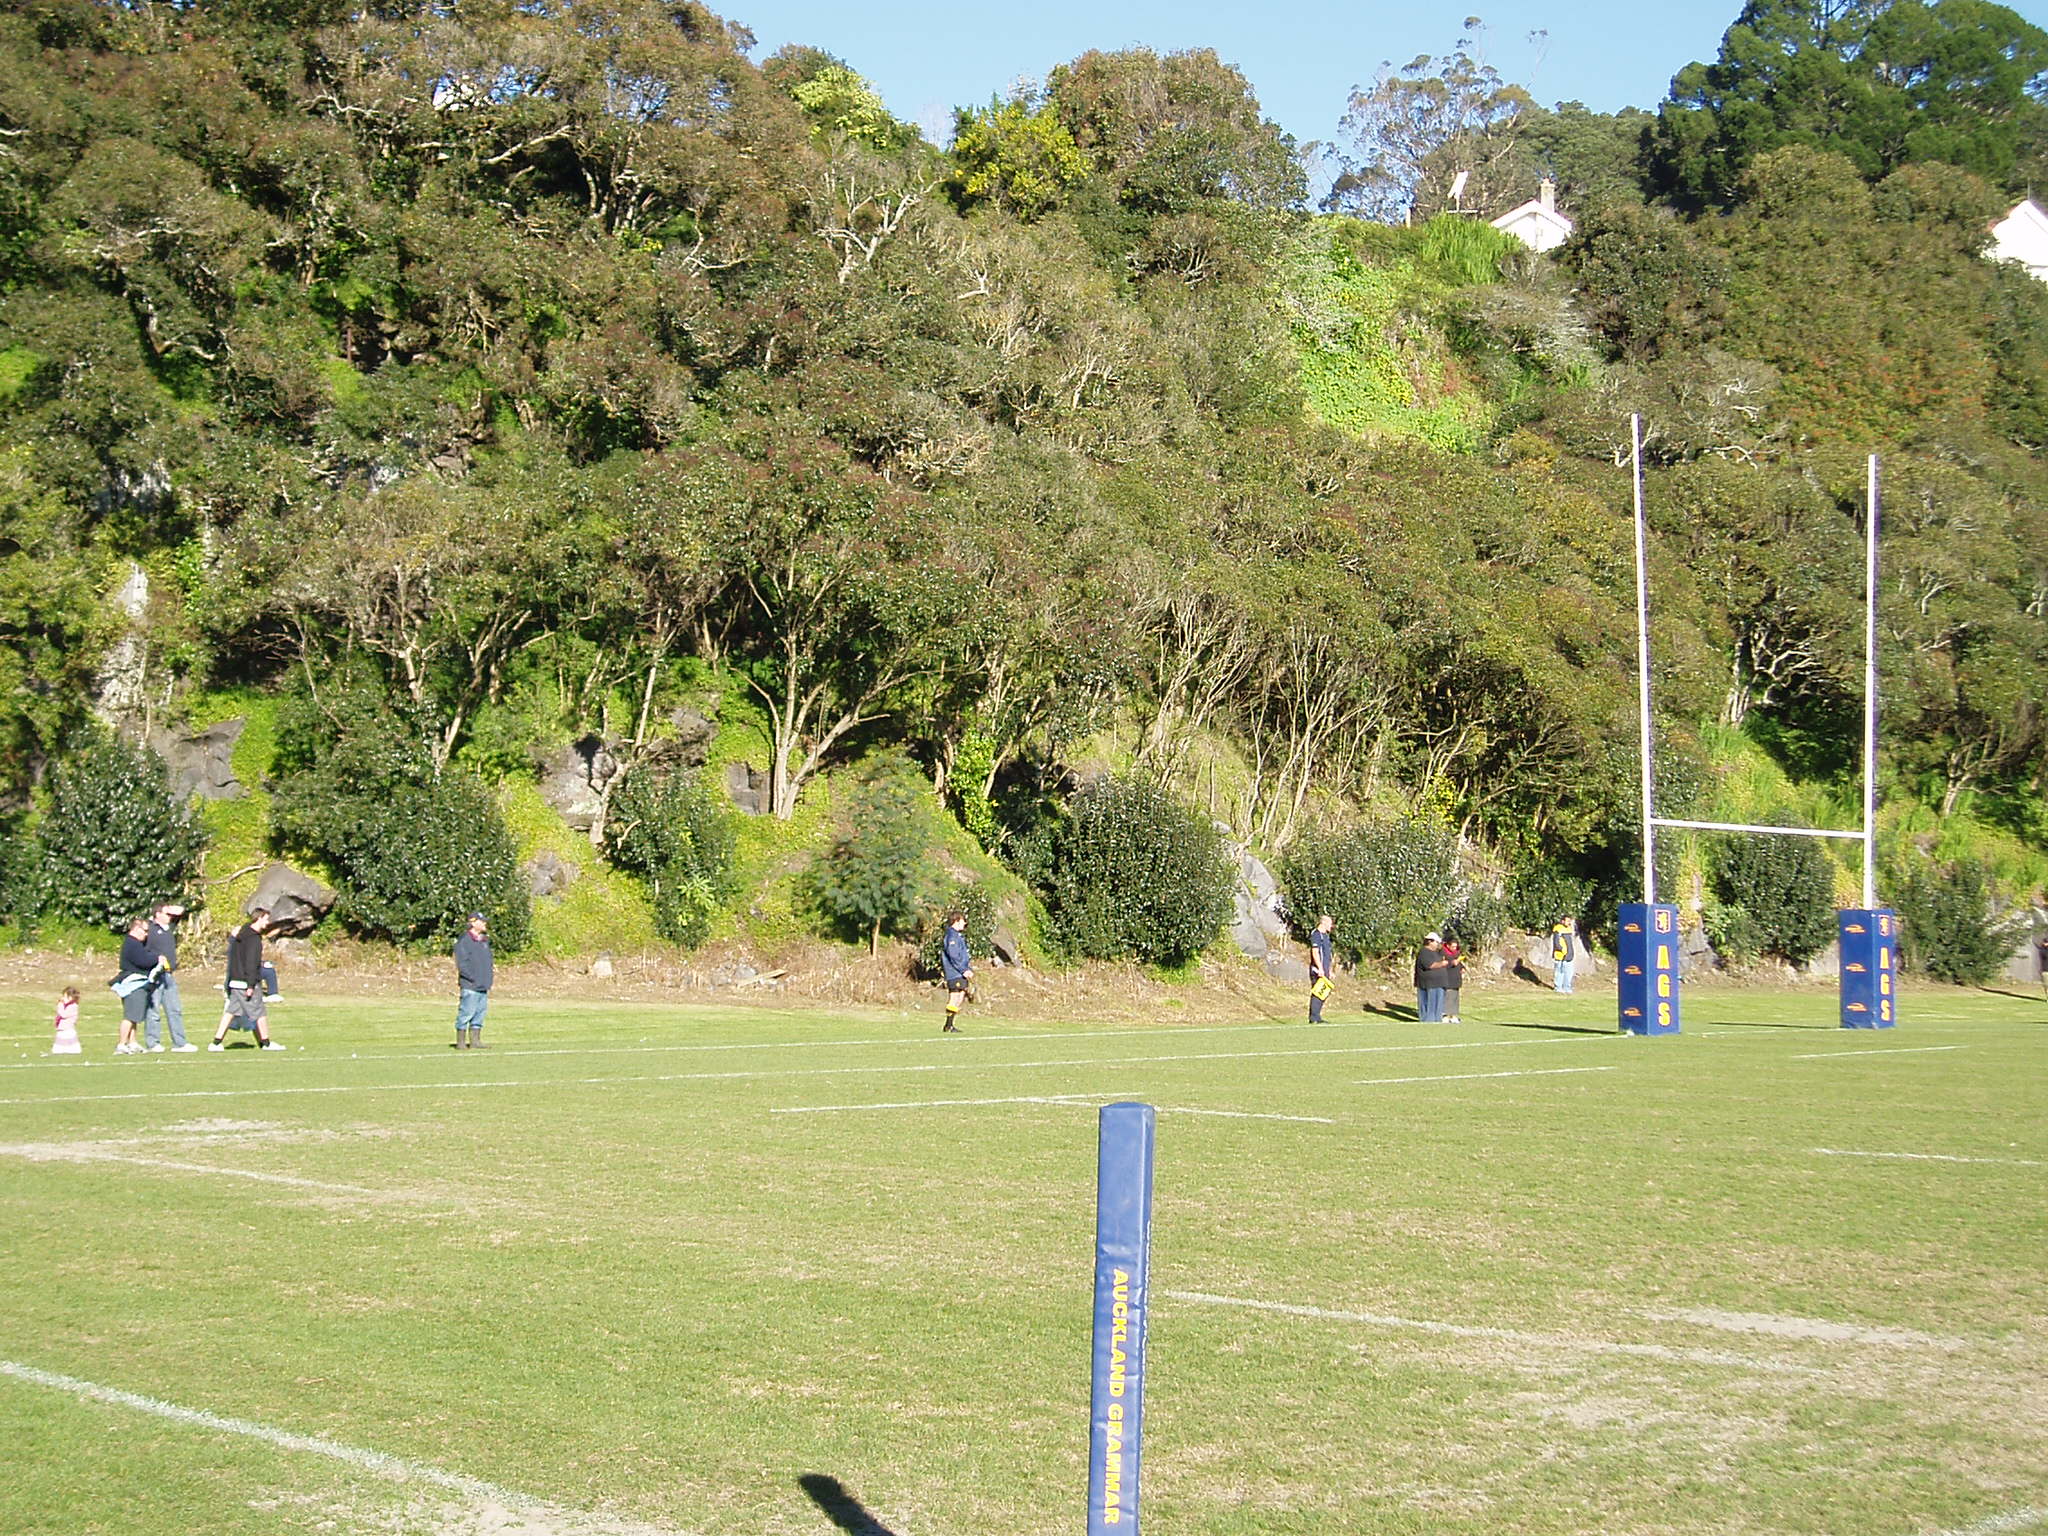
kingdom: Plantae
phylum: Tracheophyta
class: Magnoliopsida
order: Saxifragales
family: Crassulaceae
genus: Crassula
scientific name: Crassula multicava
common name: Cape province pygmyweed
